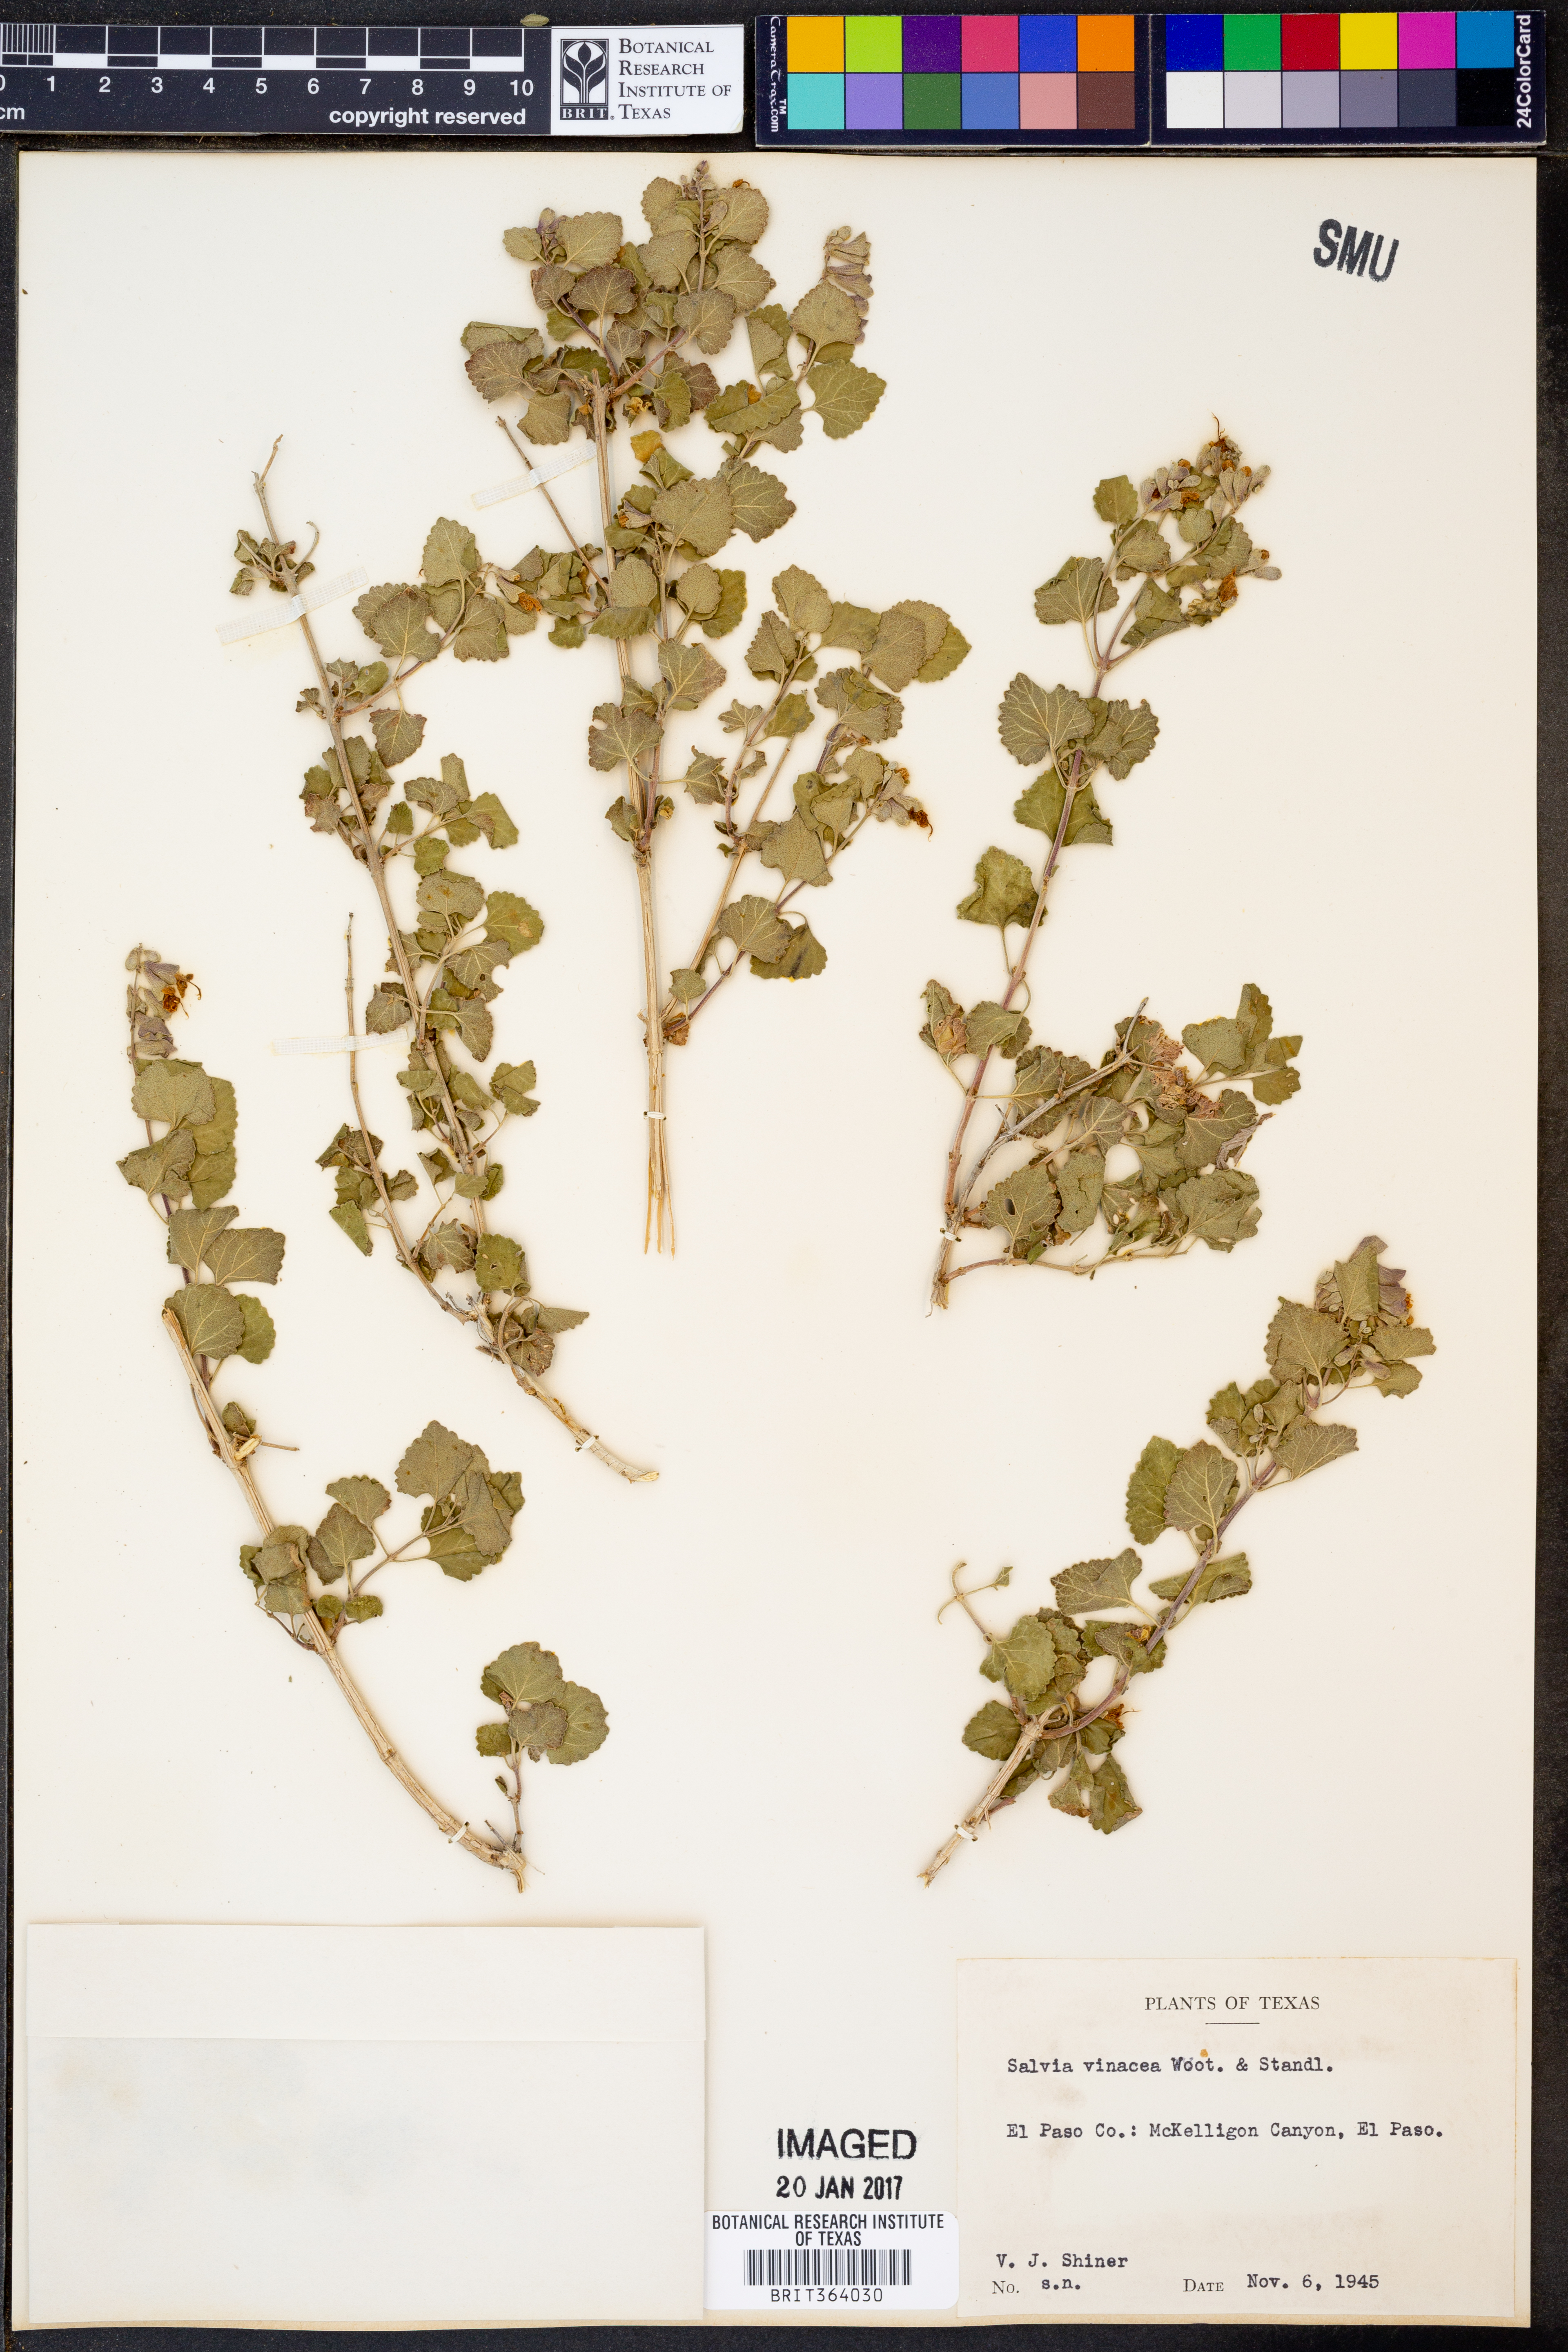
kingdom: Plantae
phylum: Tracheophyta
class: Magnoliopsida
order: Lamiales
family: Lamiaceae
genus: Salvia
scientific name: Salvia pinguifolia
